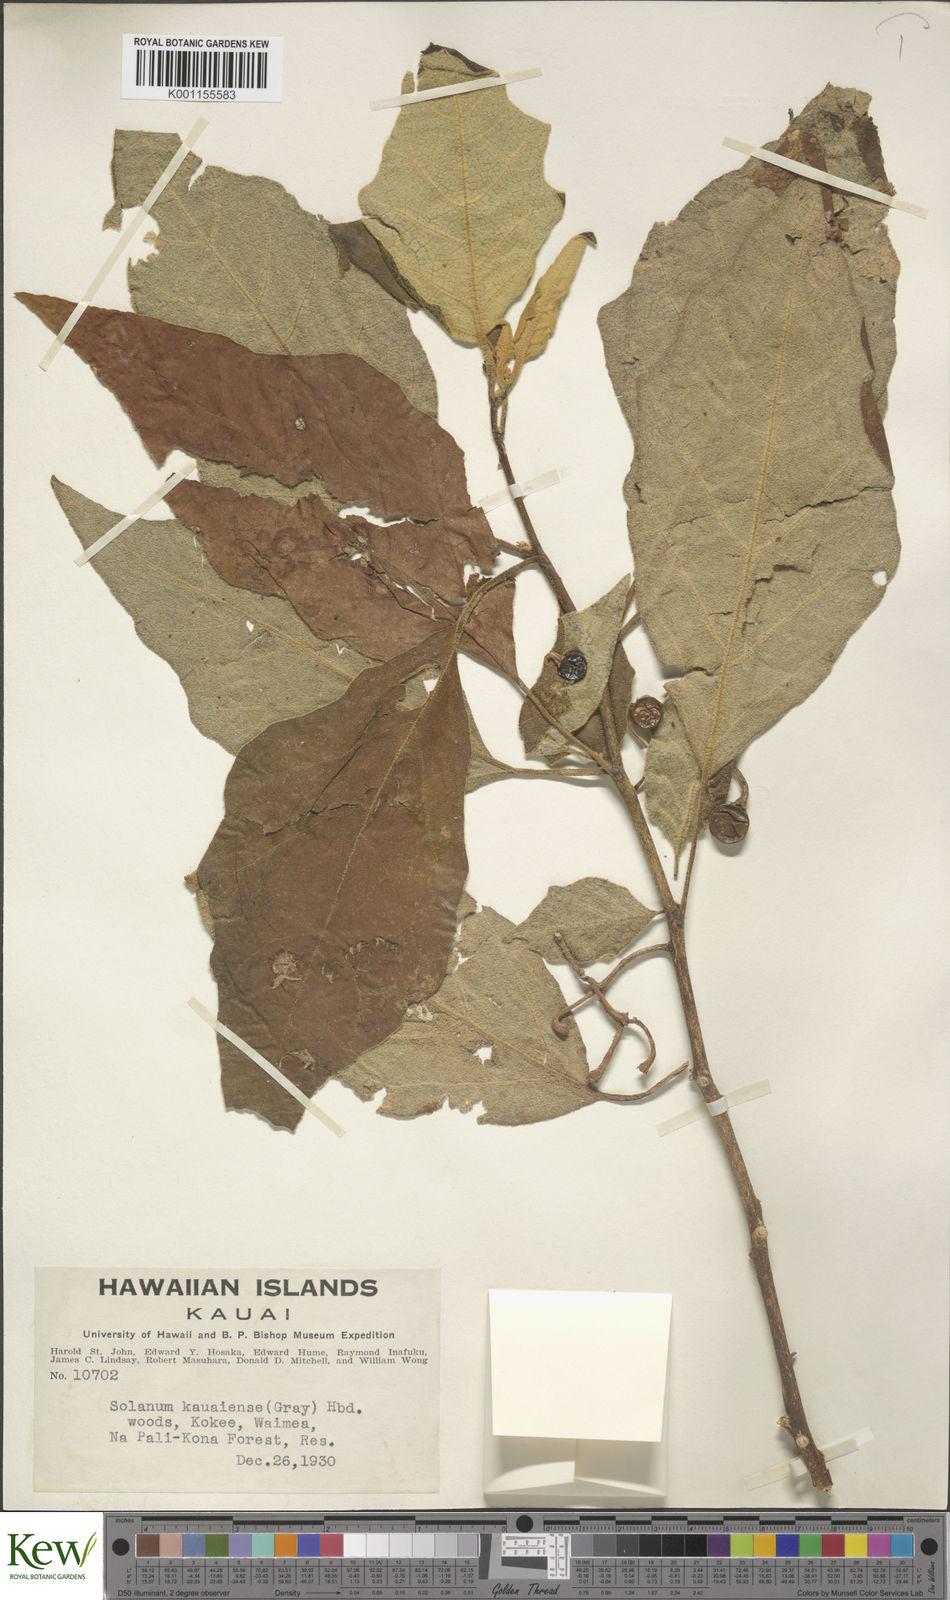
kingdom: Plantae
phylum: Tracheophyta
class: Magnoliopsida
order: Solanales
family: Solanaceae
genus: Solanum
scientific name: Solanum sandwicense
